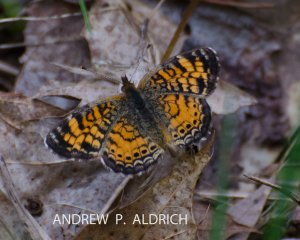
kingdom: Animalia
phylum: Arthropoda
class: Insecta
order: Lepidoptera
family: Nymphalidae
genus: Phyciodes
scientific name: Phyciodes tharos
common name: Pearl Crescent
